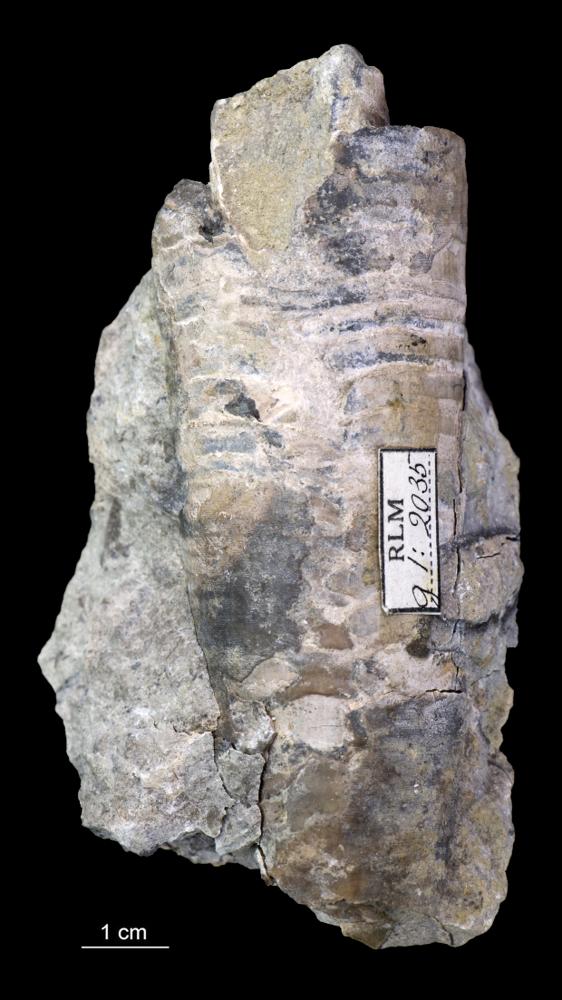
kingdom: Animalia
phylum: Mollusca
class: Cephalopoda
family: Endoceratidae
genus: Endoceras
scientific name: Endoceras
